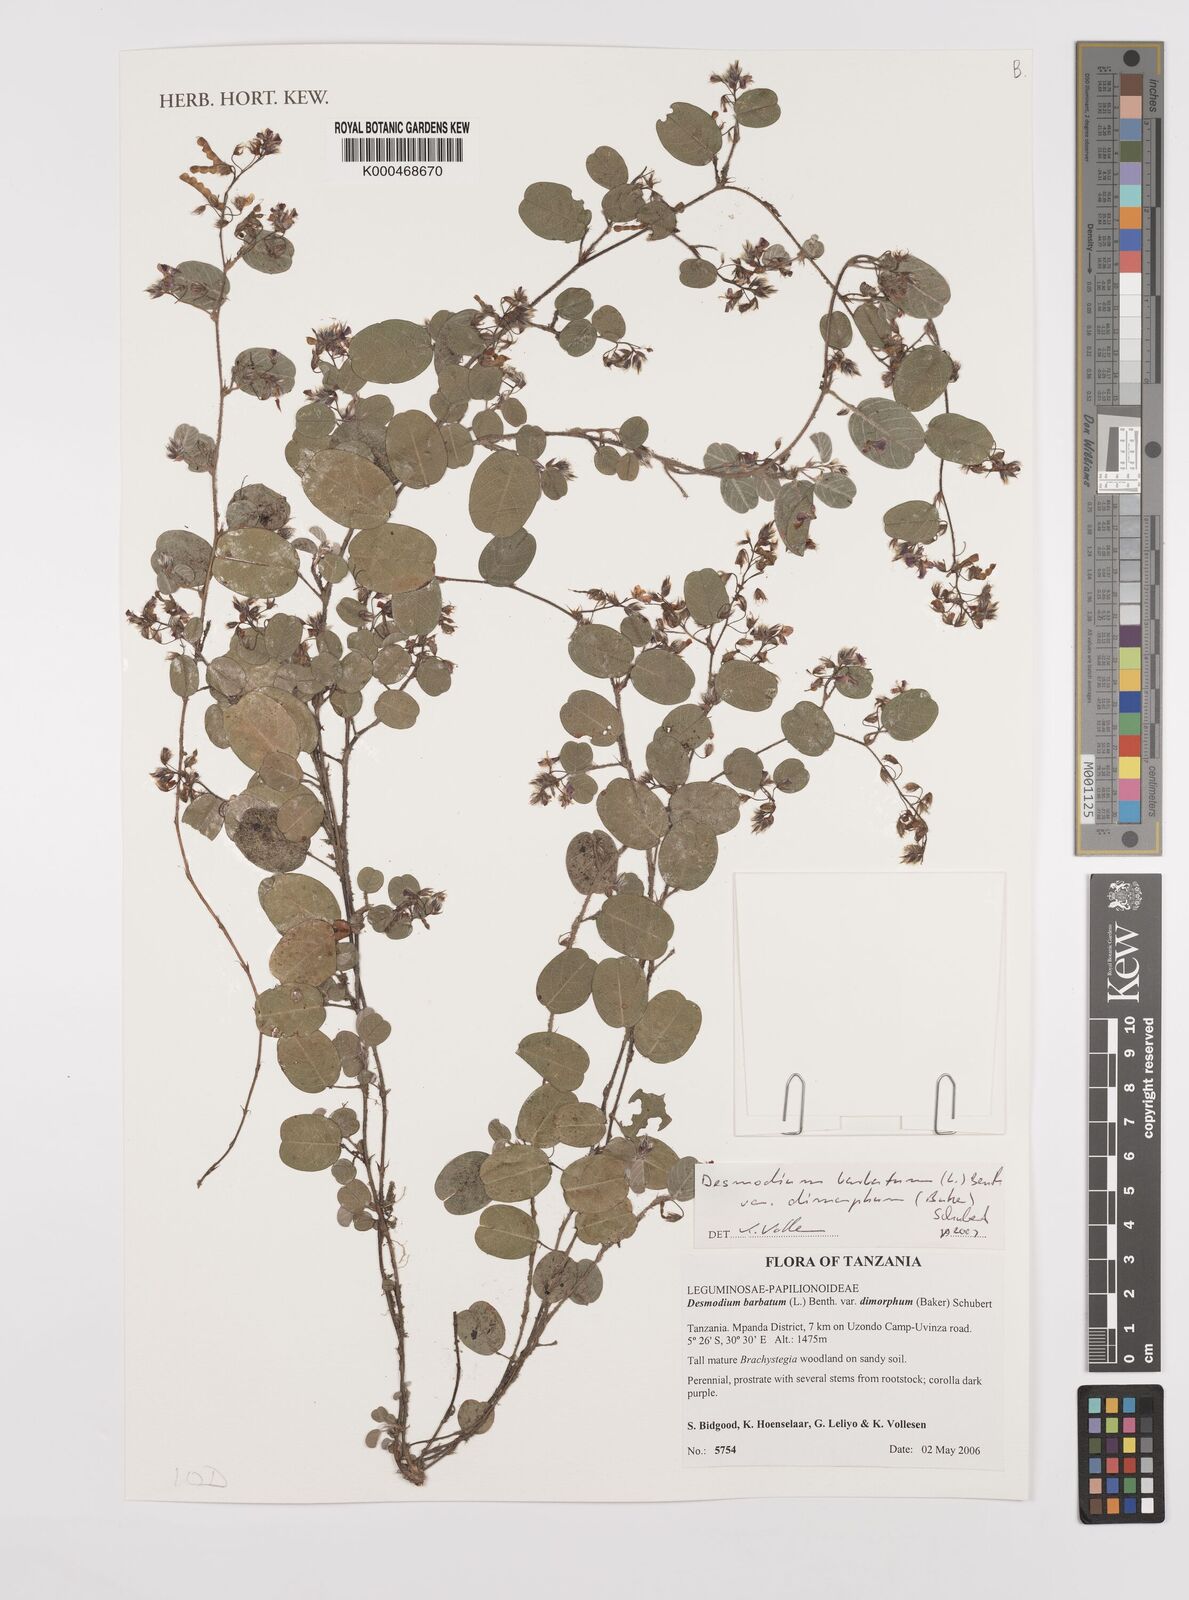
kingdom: Plantae
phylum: Tracheophyta
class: Magnoliopsida
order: Fabales
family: Fabaceae
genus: Grona
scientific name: Grona barbata
